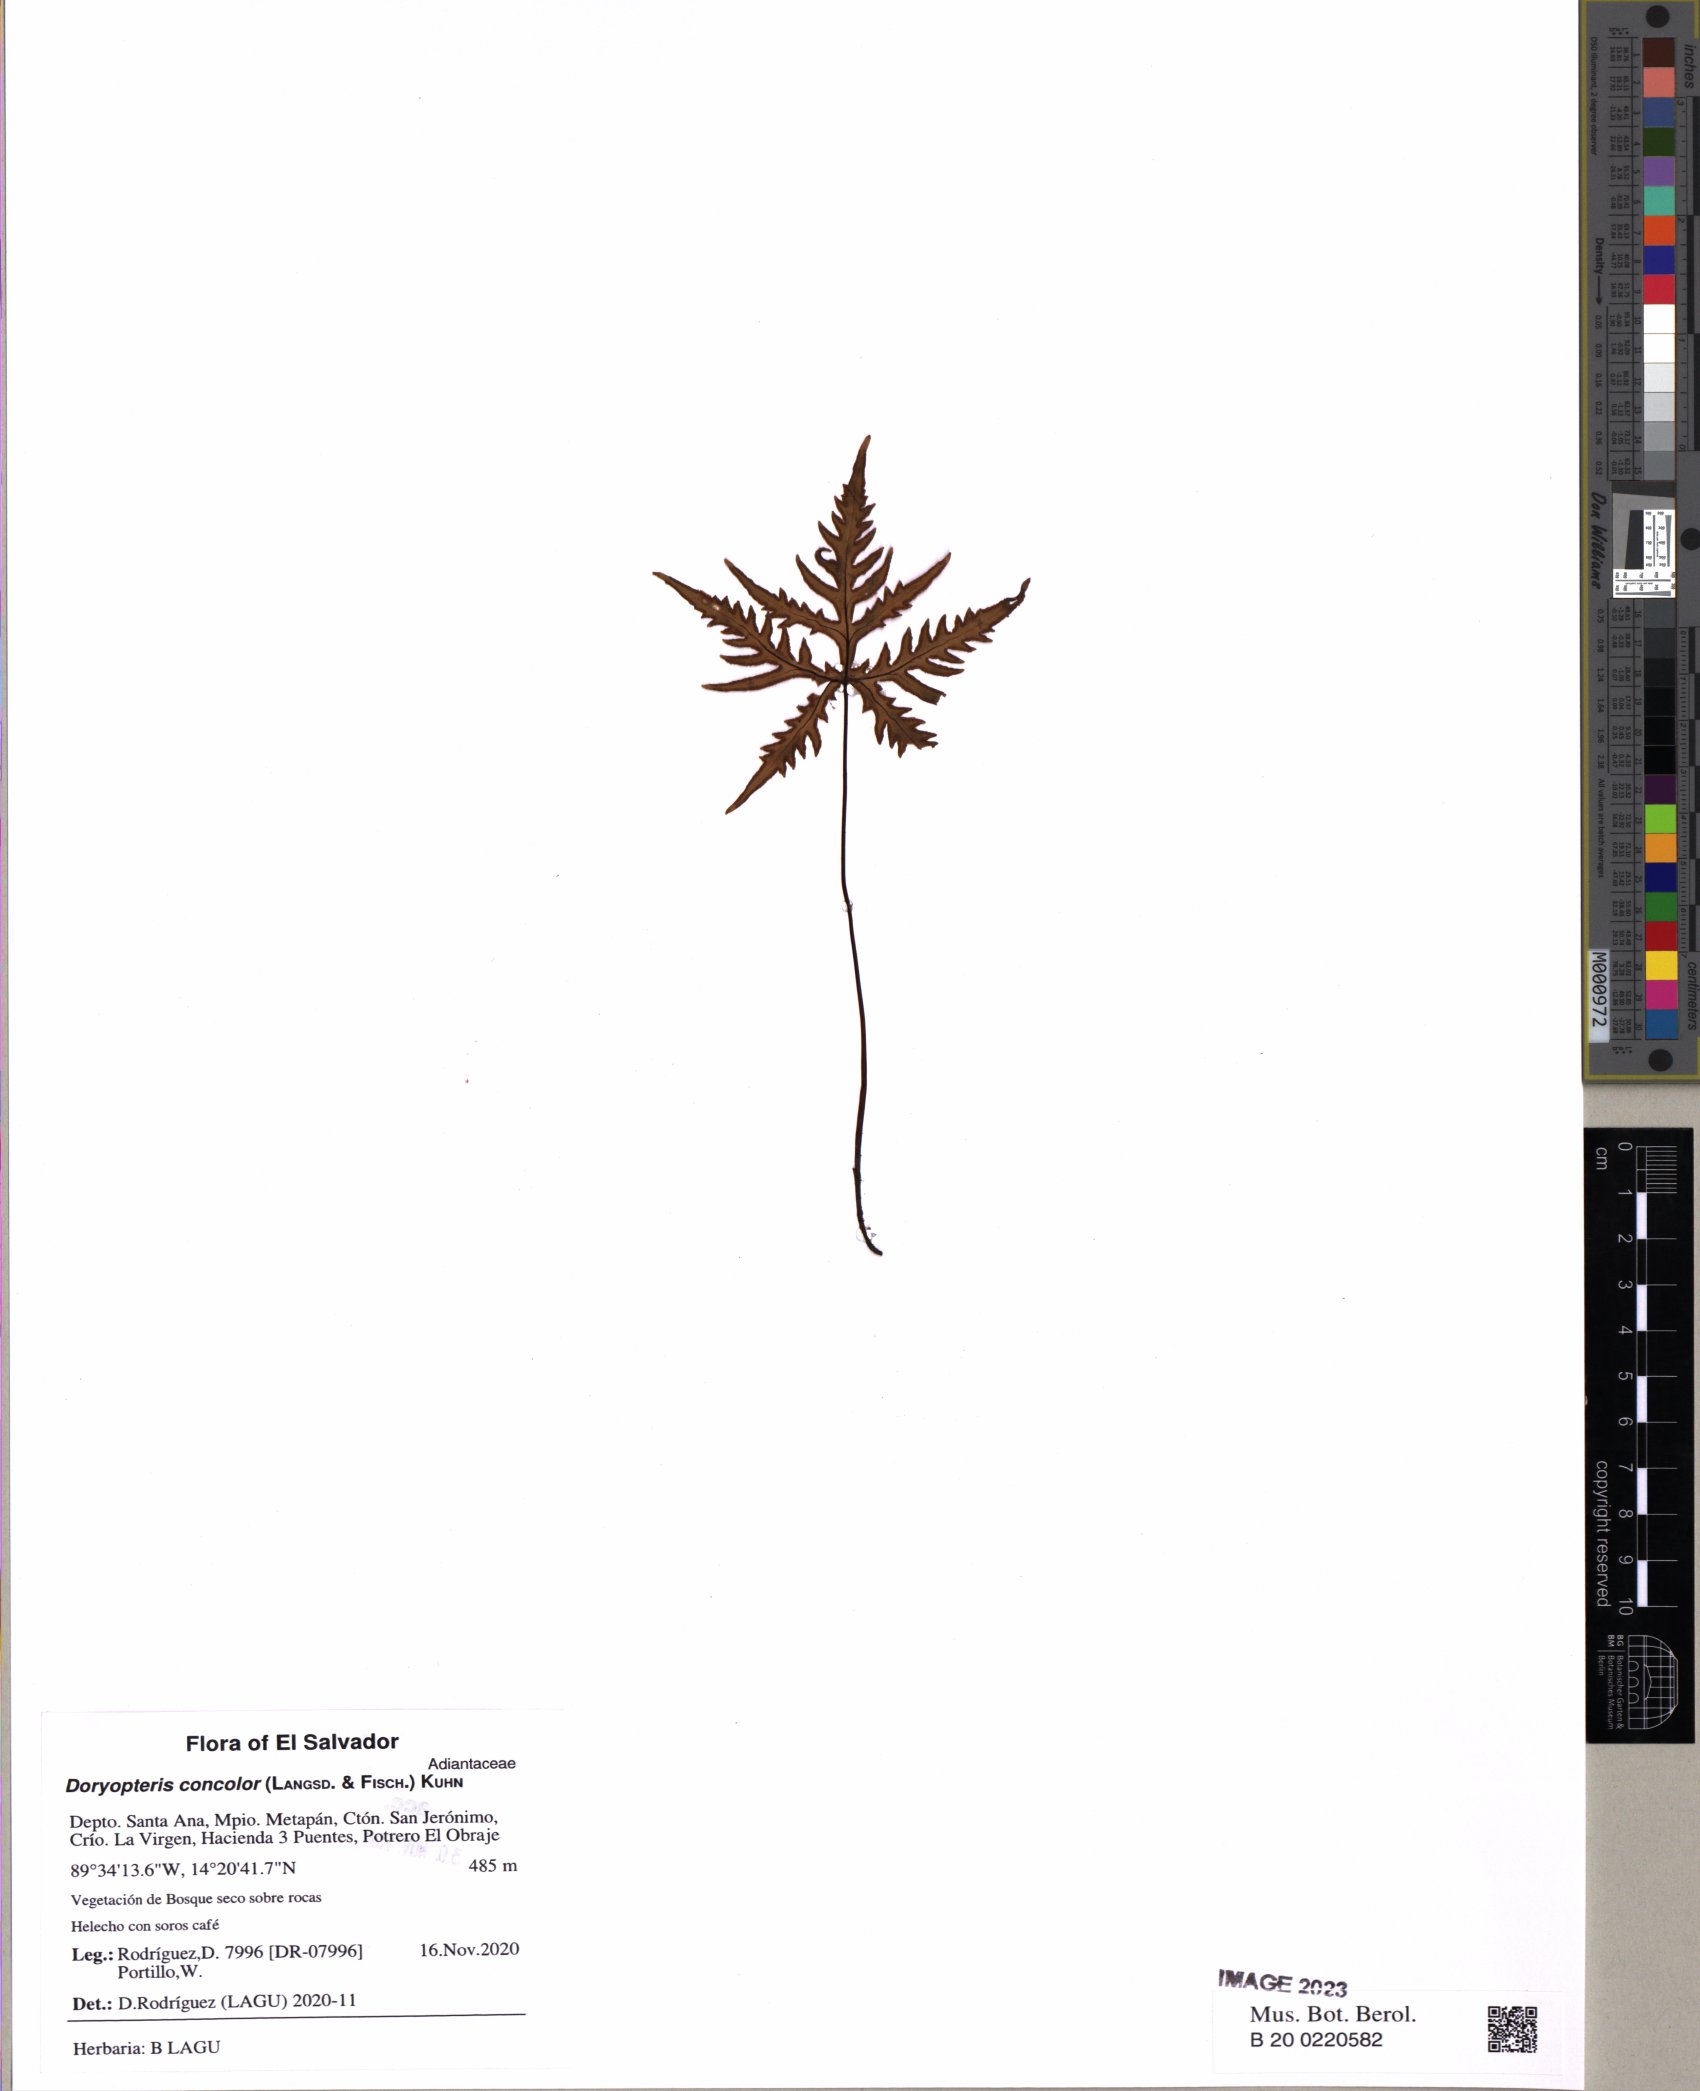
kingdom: Plantae
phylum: Tracheophyta
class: Polypodiopsida
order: Polypodiales
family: Pteridaceae
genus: Doryopteris
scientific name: Doryopteris concolor
